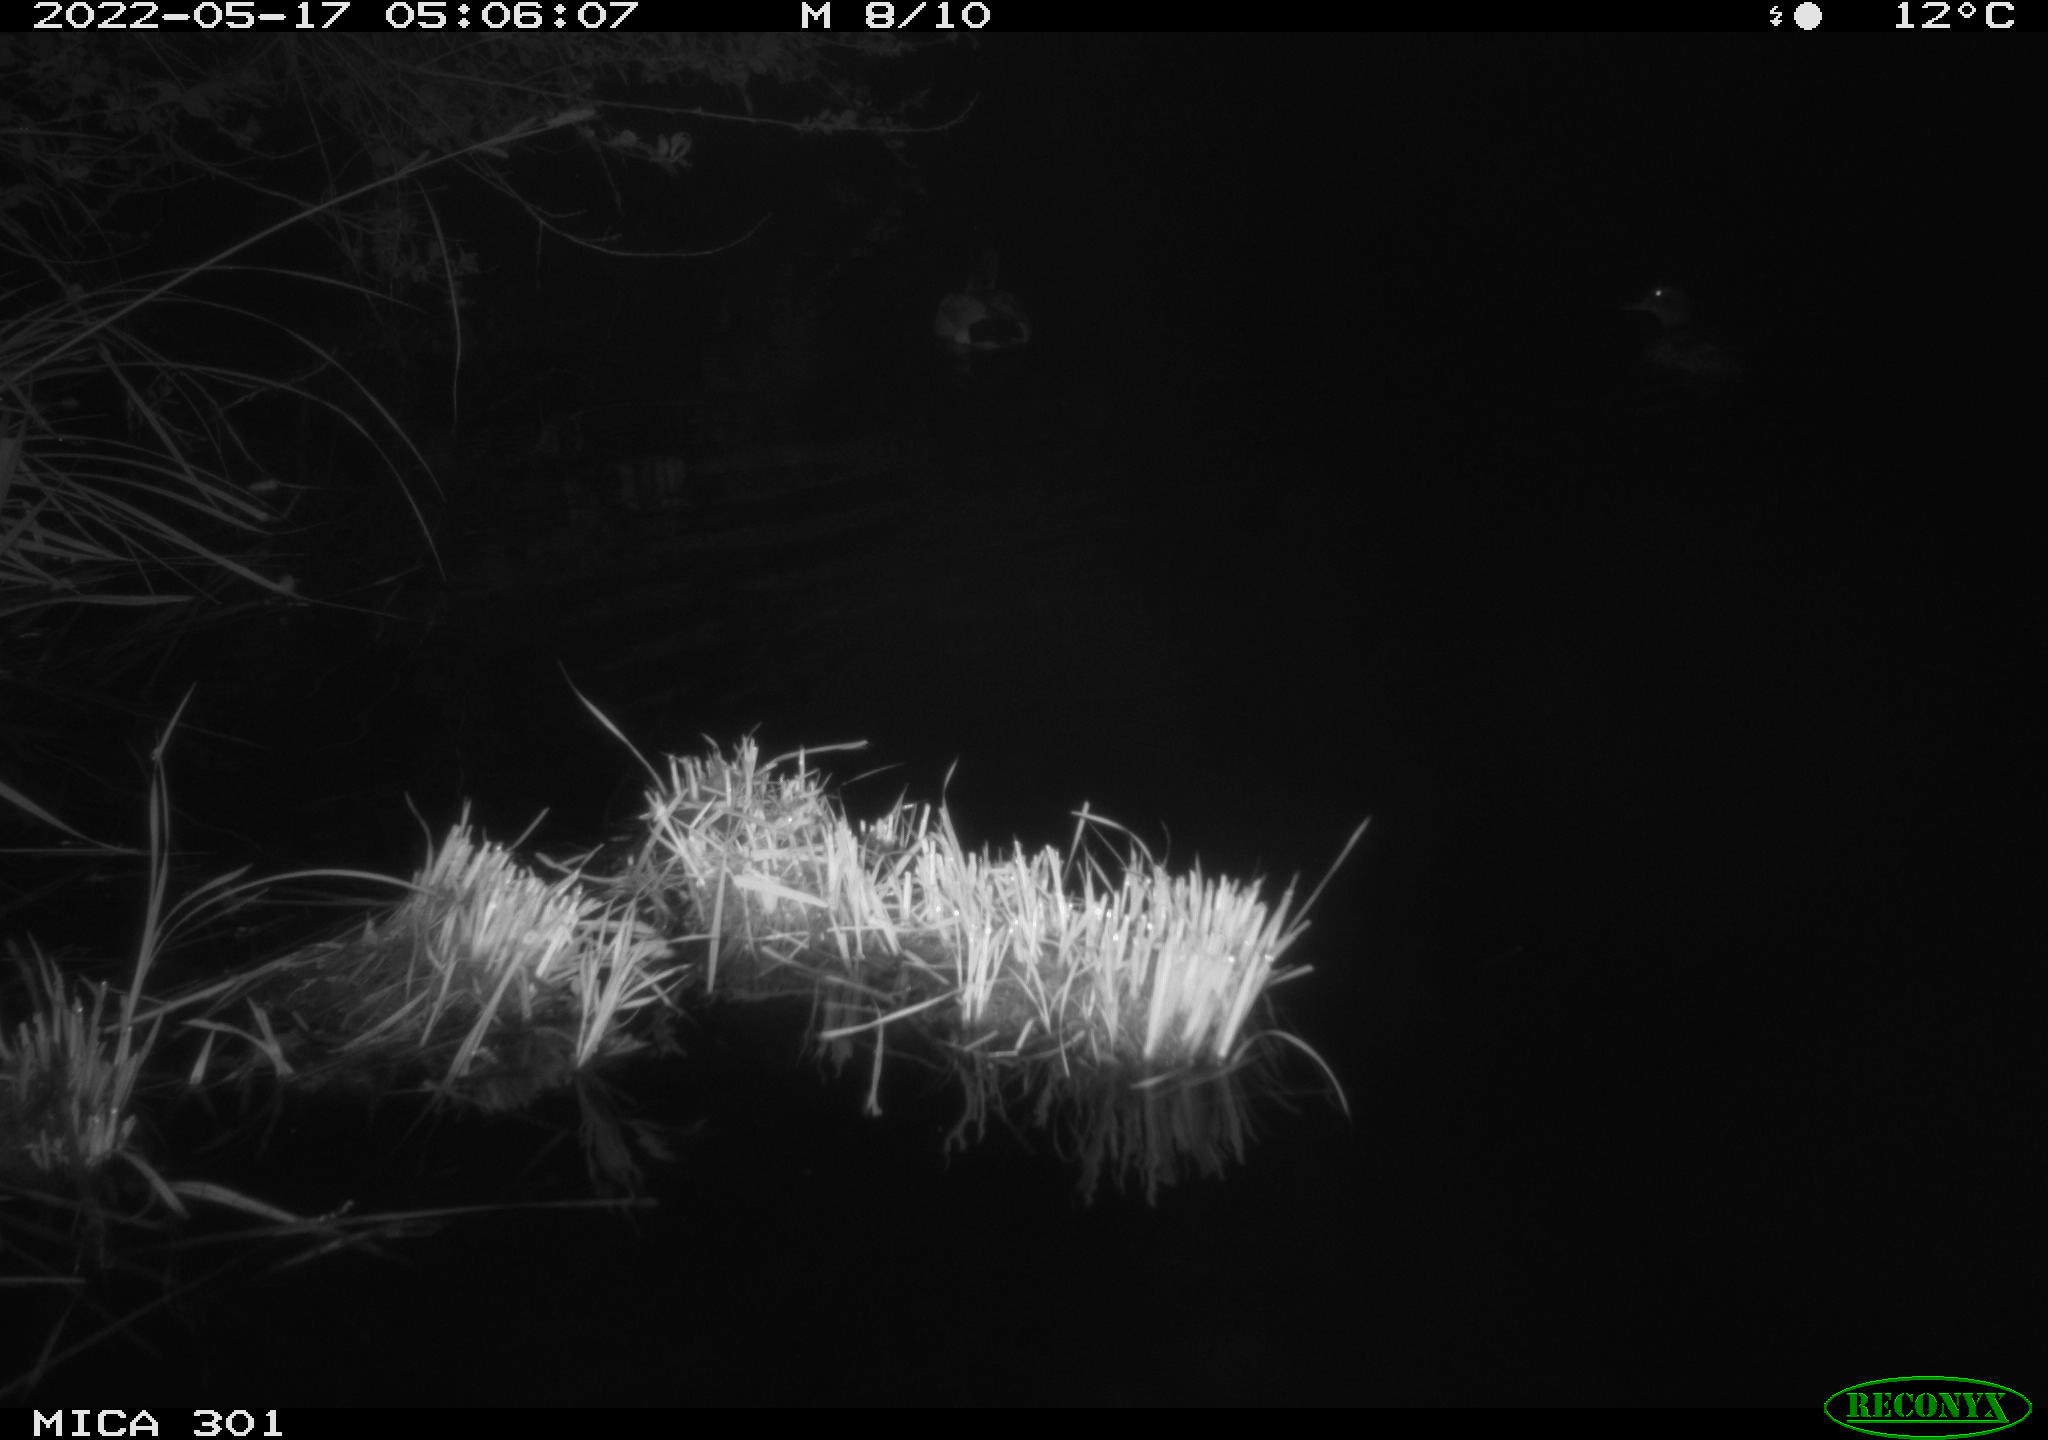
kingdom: Animalia
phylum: Chordata
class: Aves
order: Anseriformes
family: Anatidae
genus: Anas
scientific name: Anas platyrhynchos
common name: Mallard
